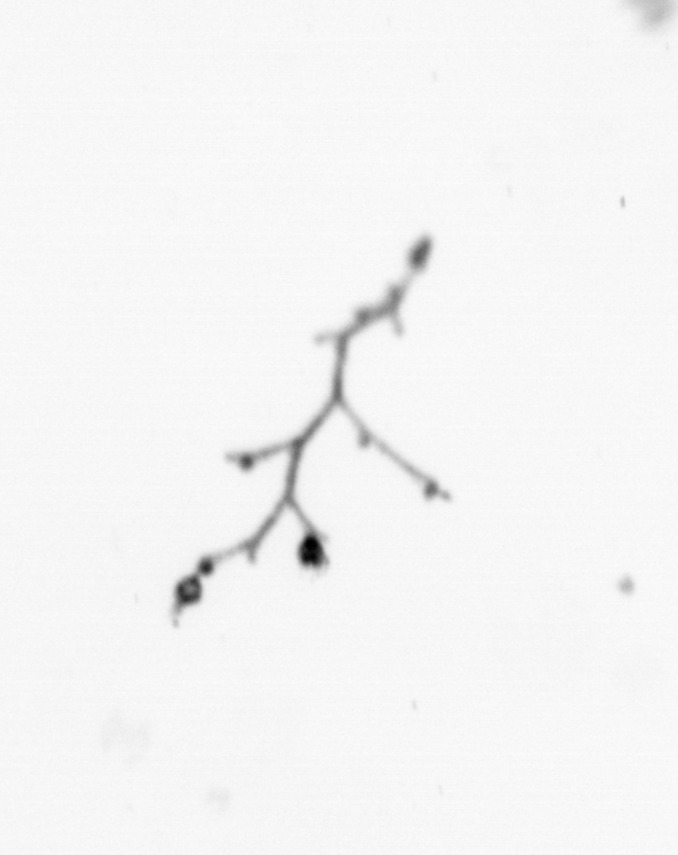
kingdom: Animalia
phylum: Cnidaria
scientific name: Cnidaria
